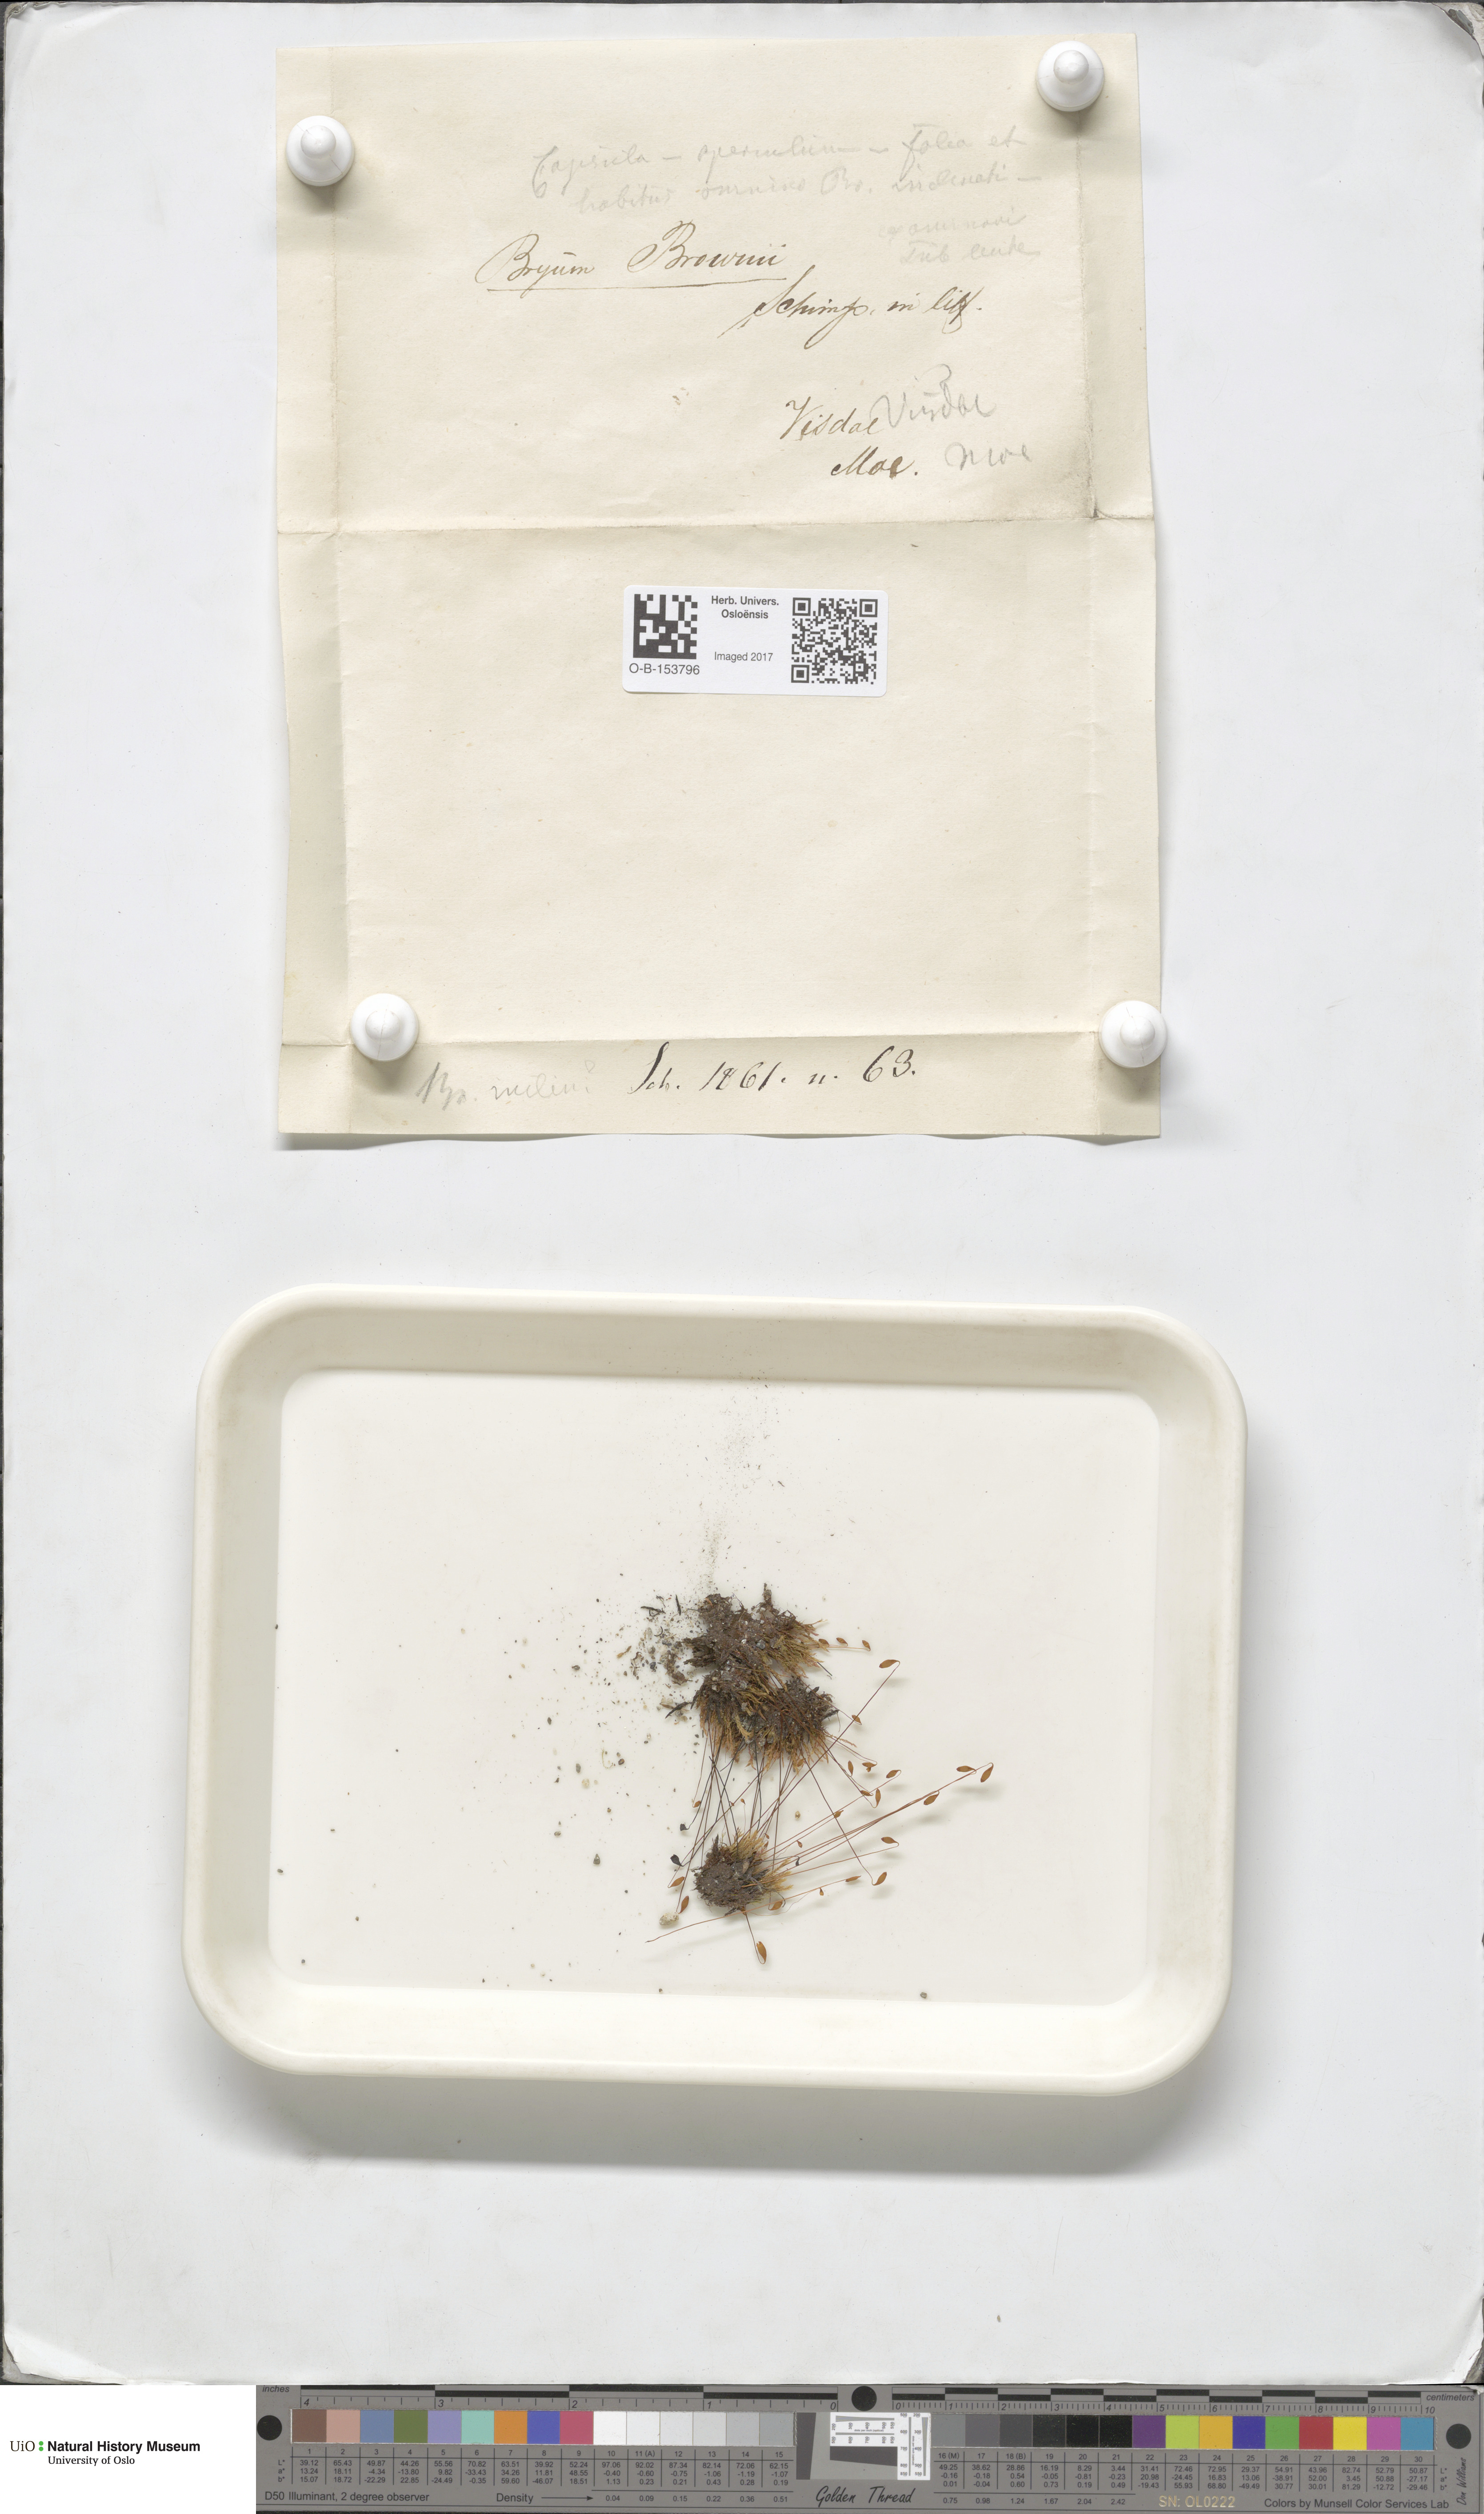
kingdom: Plantae
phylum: Bryophyta
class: Bryopsida
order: Bryales
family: Bryaceae
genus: Ptychostomum
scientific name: Ptychostomum arcticum
